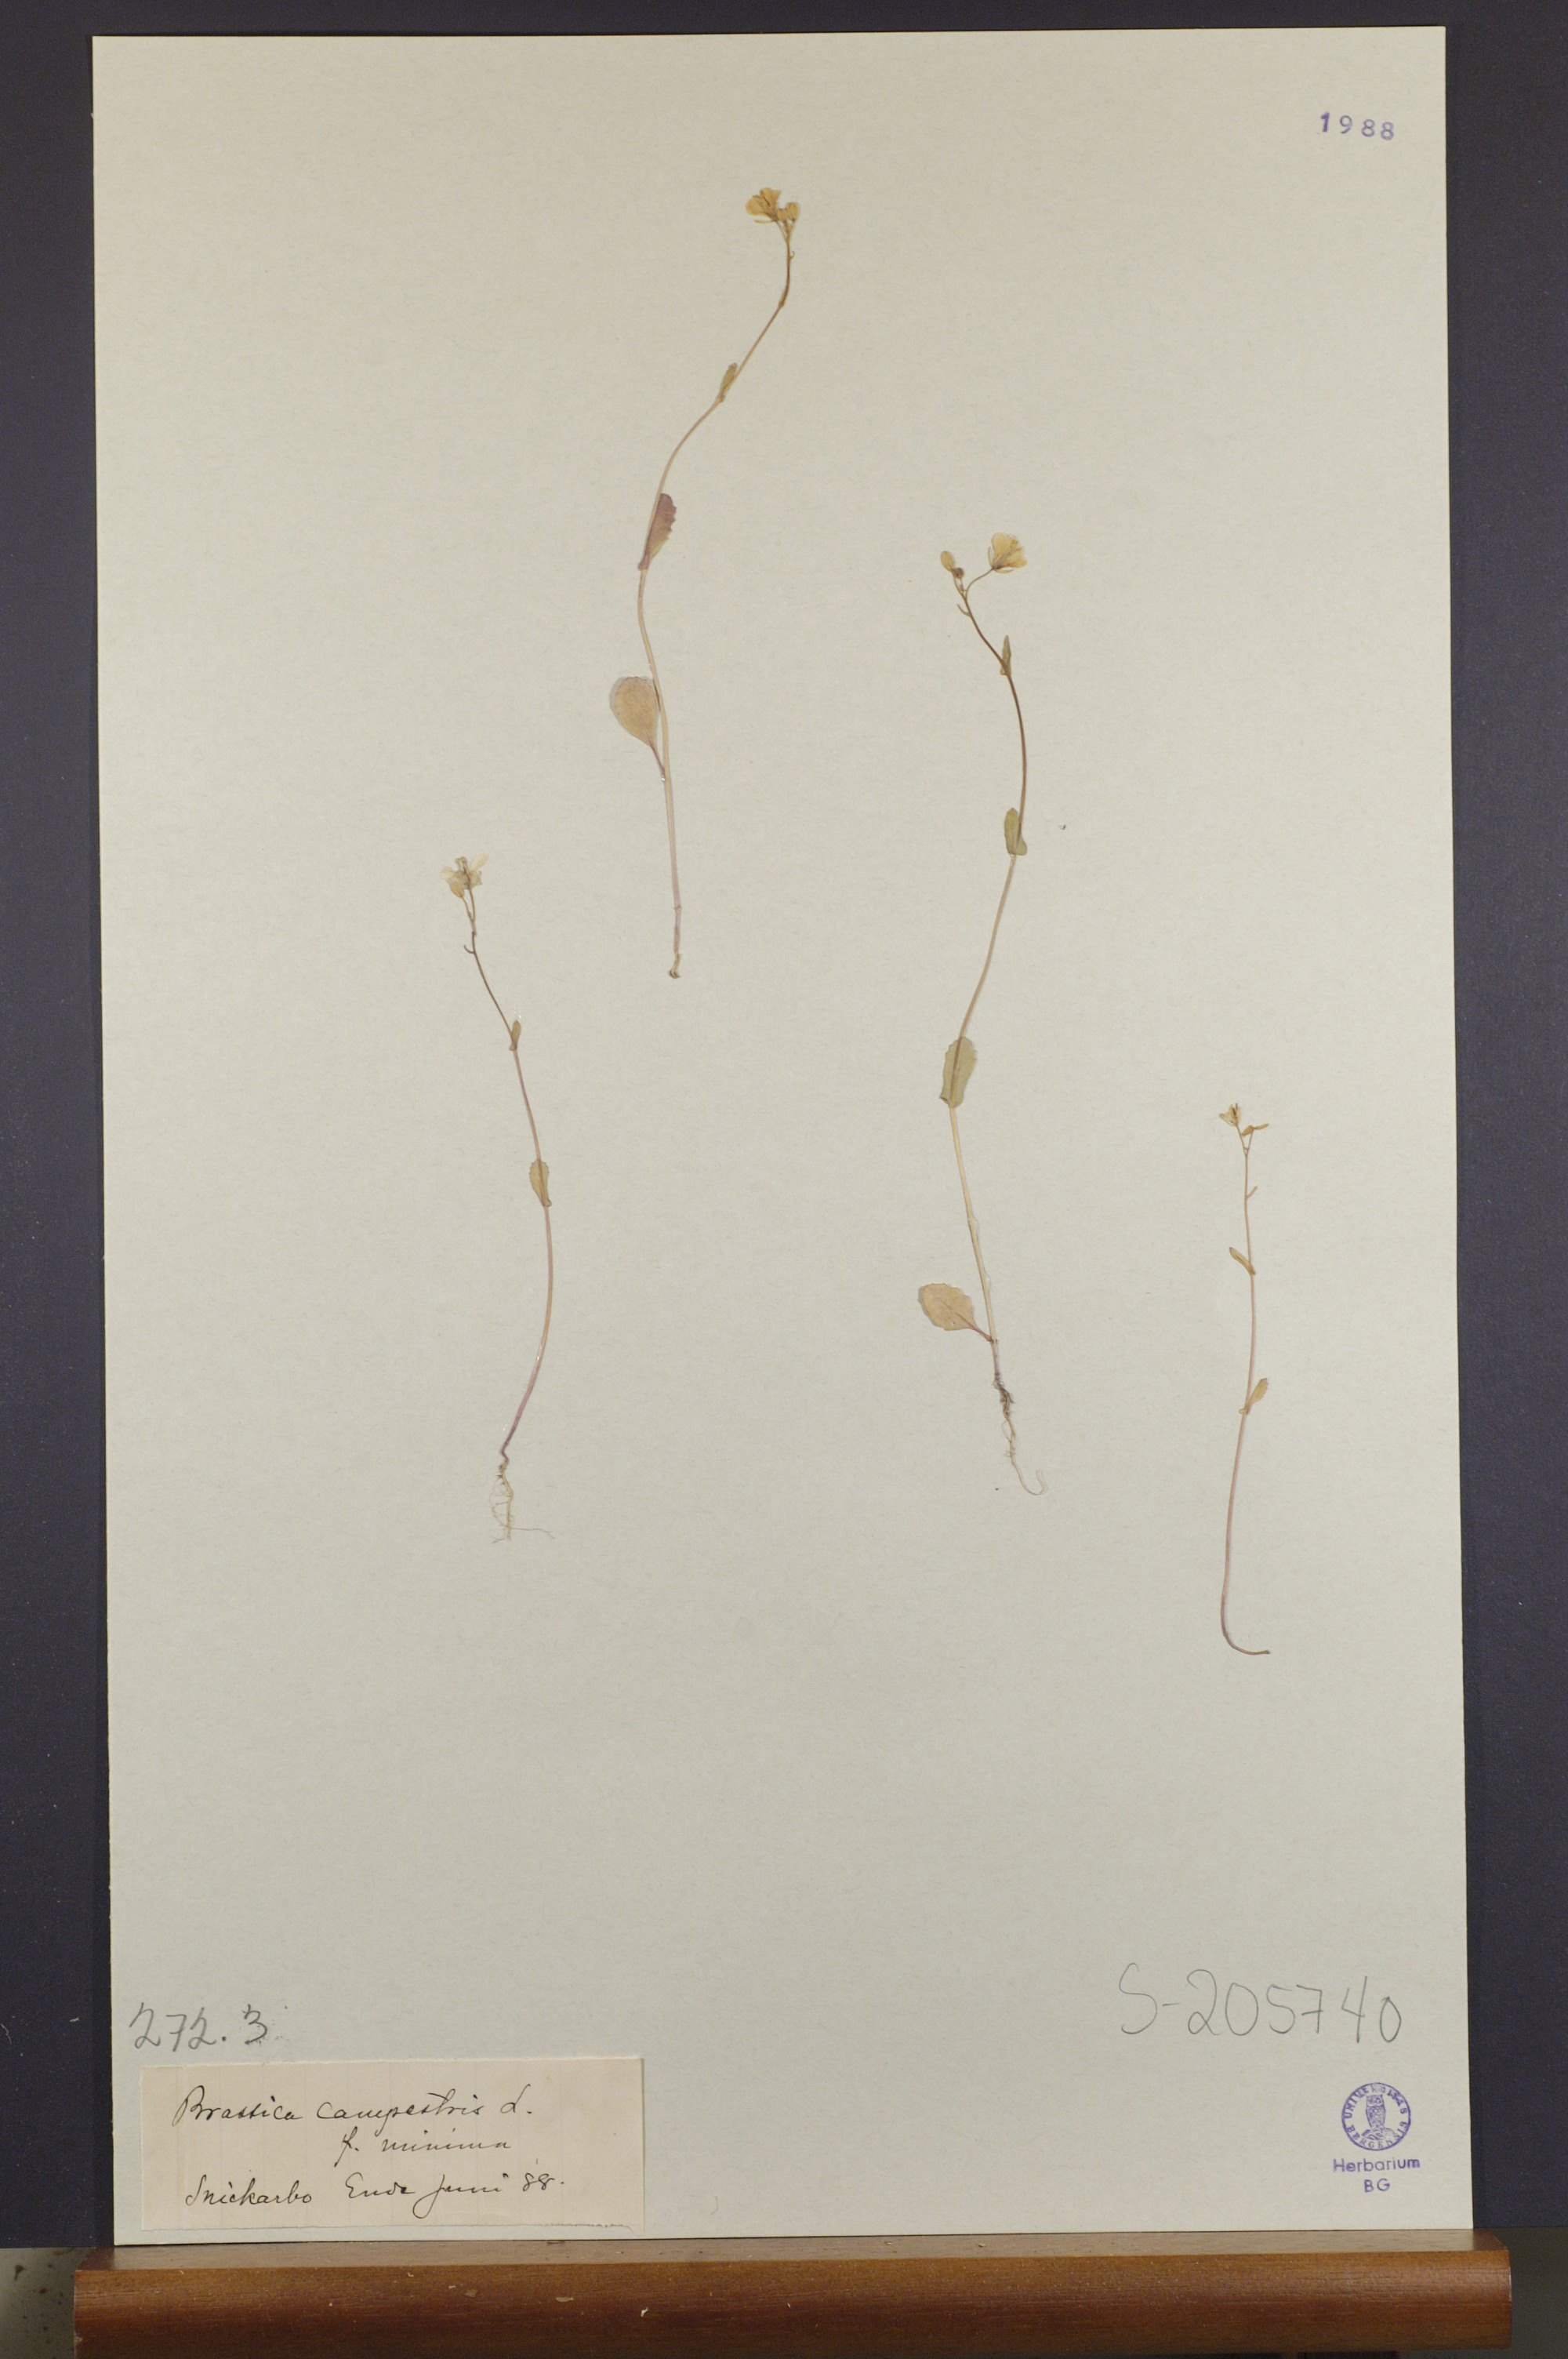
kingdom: Plantae
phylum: Tracheophyta
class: Magnoliopsida
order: Brassicales
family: Brassicaceae
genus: Brassica
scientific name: Brassica rapa
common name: Field mustard
